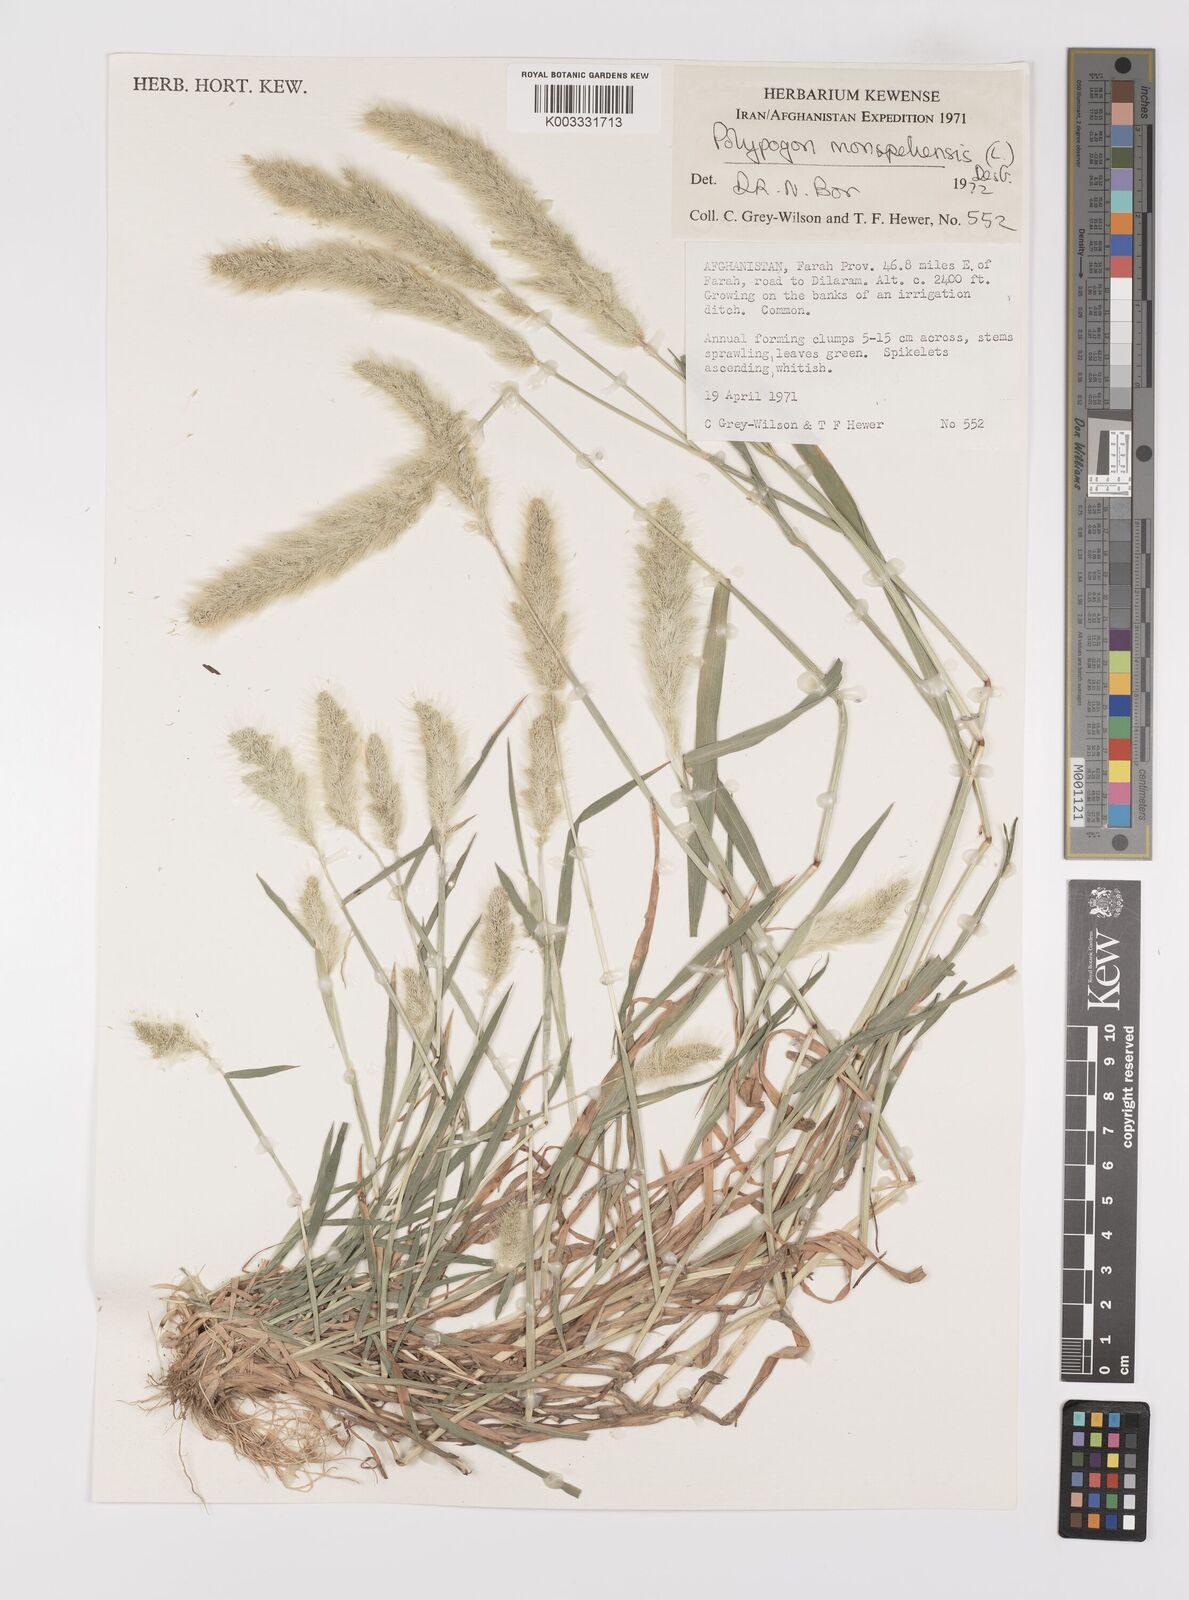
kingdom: Plantae
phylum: Tracheophyta
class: Liliopsida
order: Poales
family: Poaceae
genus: Polypogon
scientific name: Polypogon monspeliensis
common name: Annual rabbitsfoot grass
